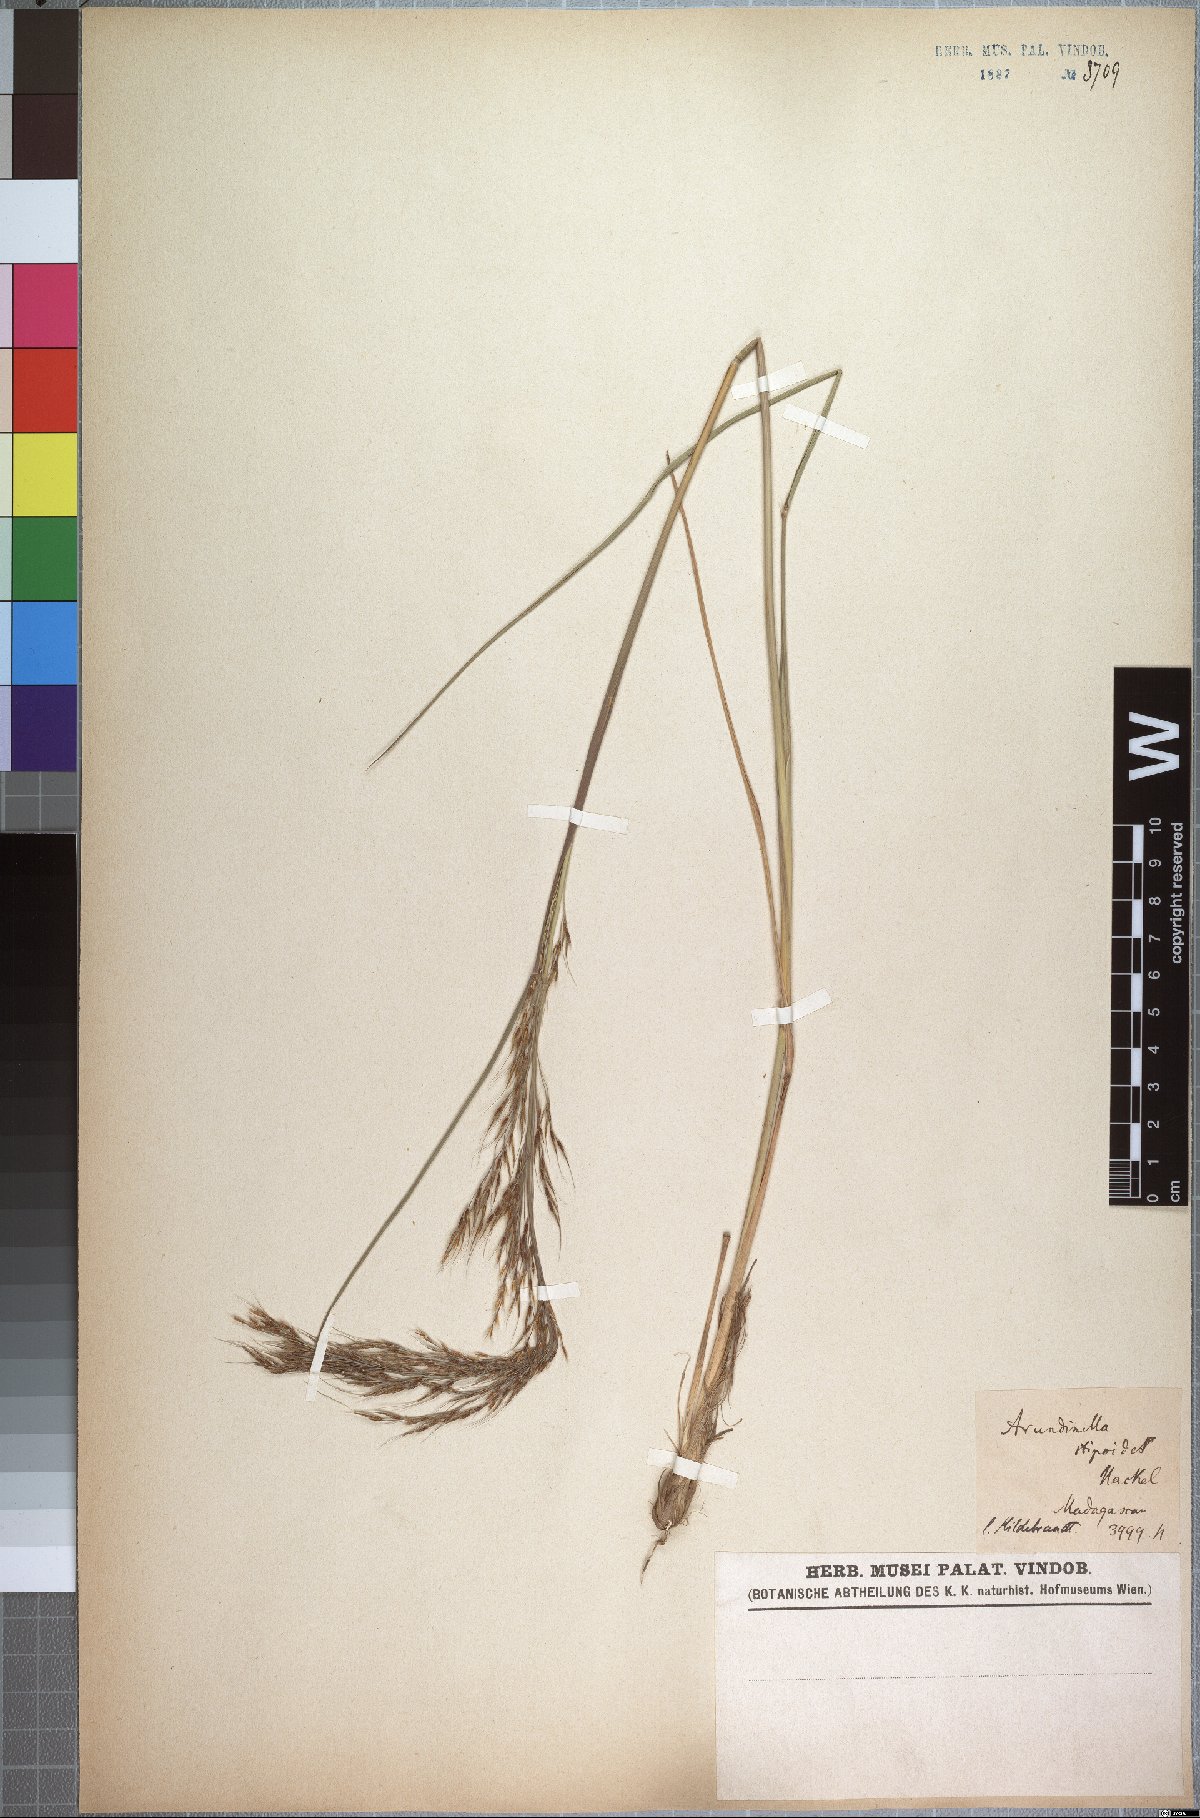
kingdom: Plantae
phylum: Tracheophyta
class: Liliopsida
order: Poales
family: Poaceae
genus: Loudetia
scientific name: Loudetia simplex
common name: Common russet grass
